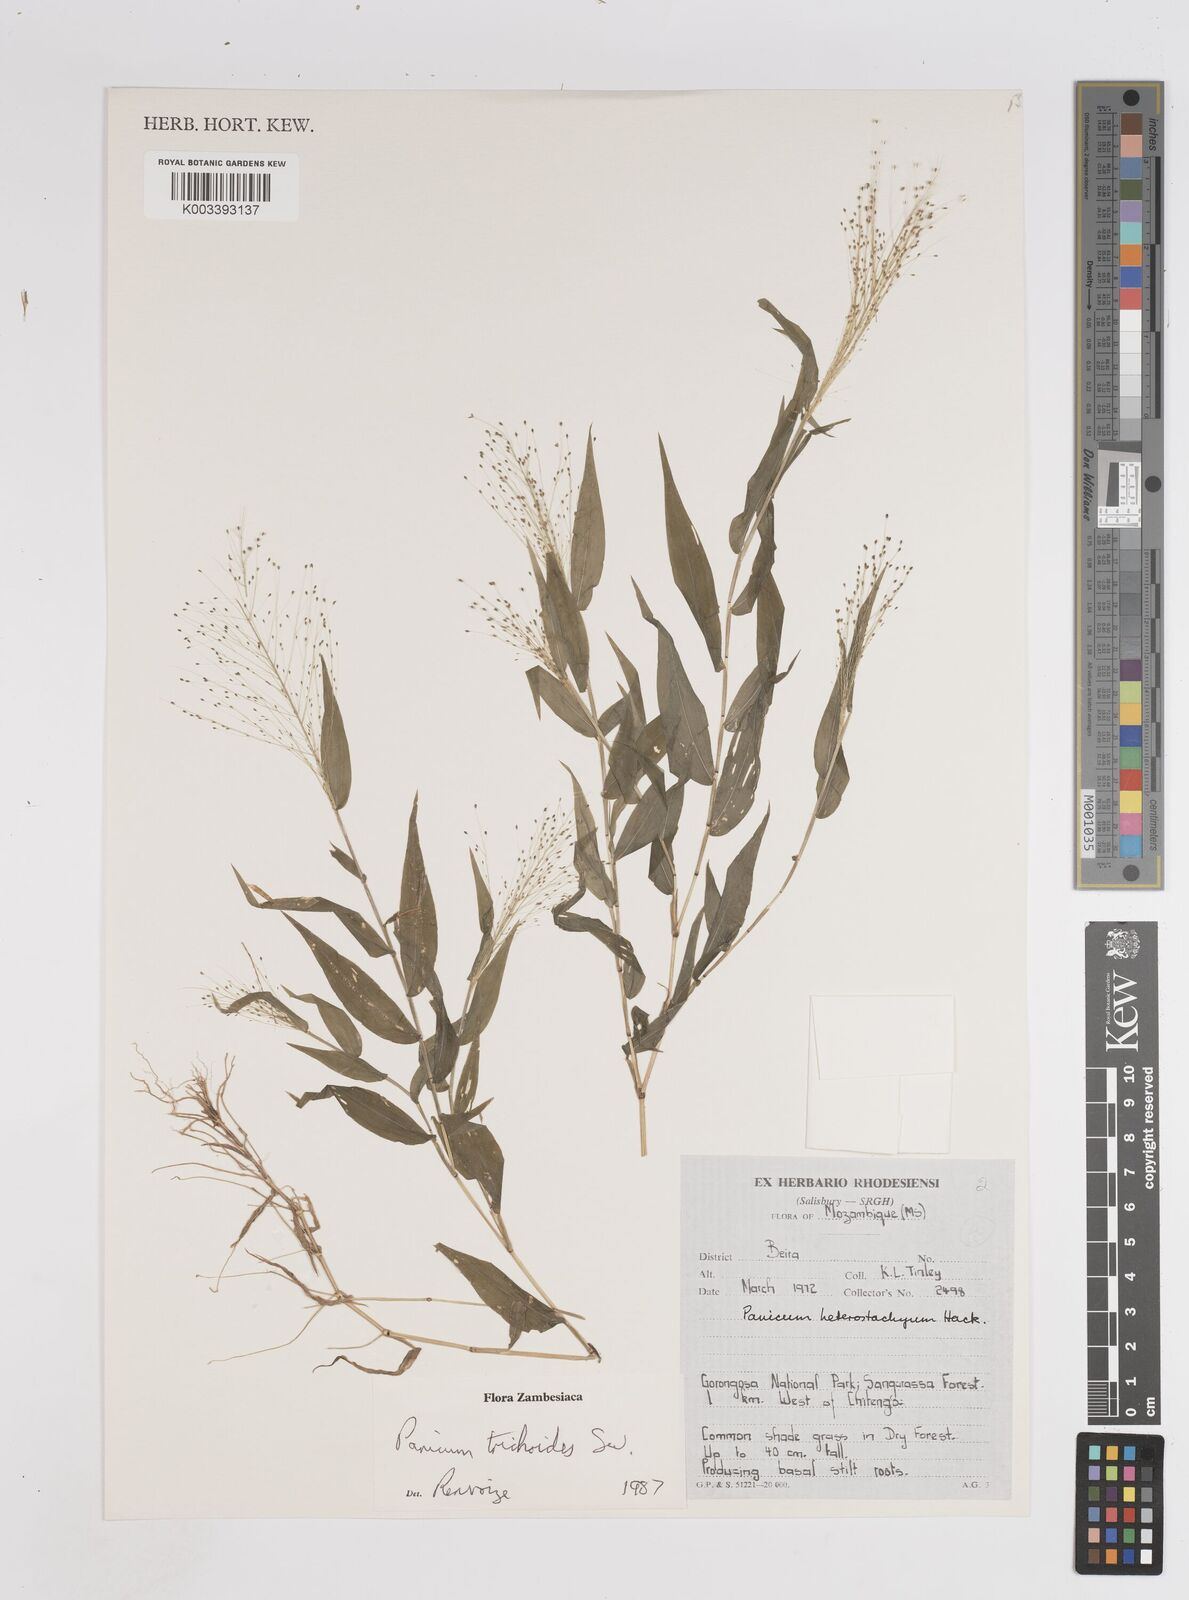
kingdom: Plantae
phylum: Tracheophyta
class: Liliopsida
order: Poales
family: Poaceae
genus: Panicum
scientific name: Panicum trichoides
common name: Tickle grass
